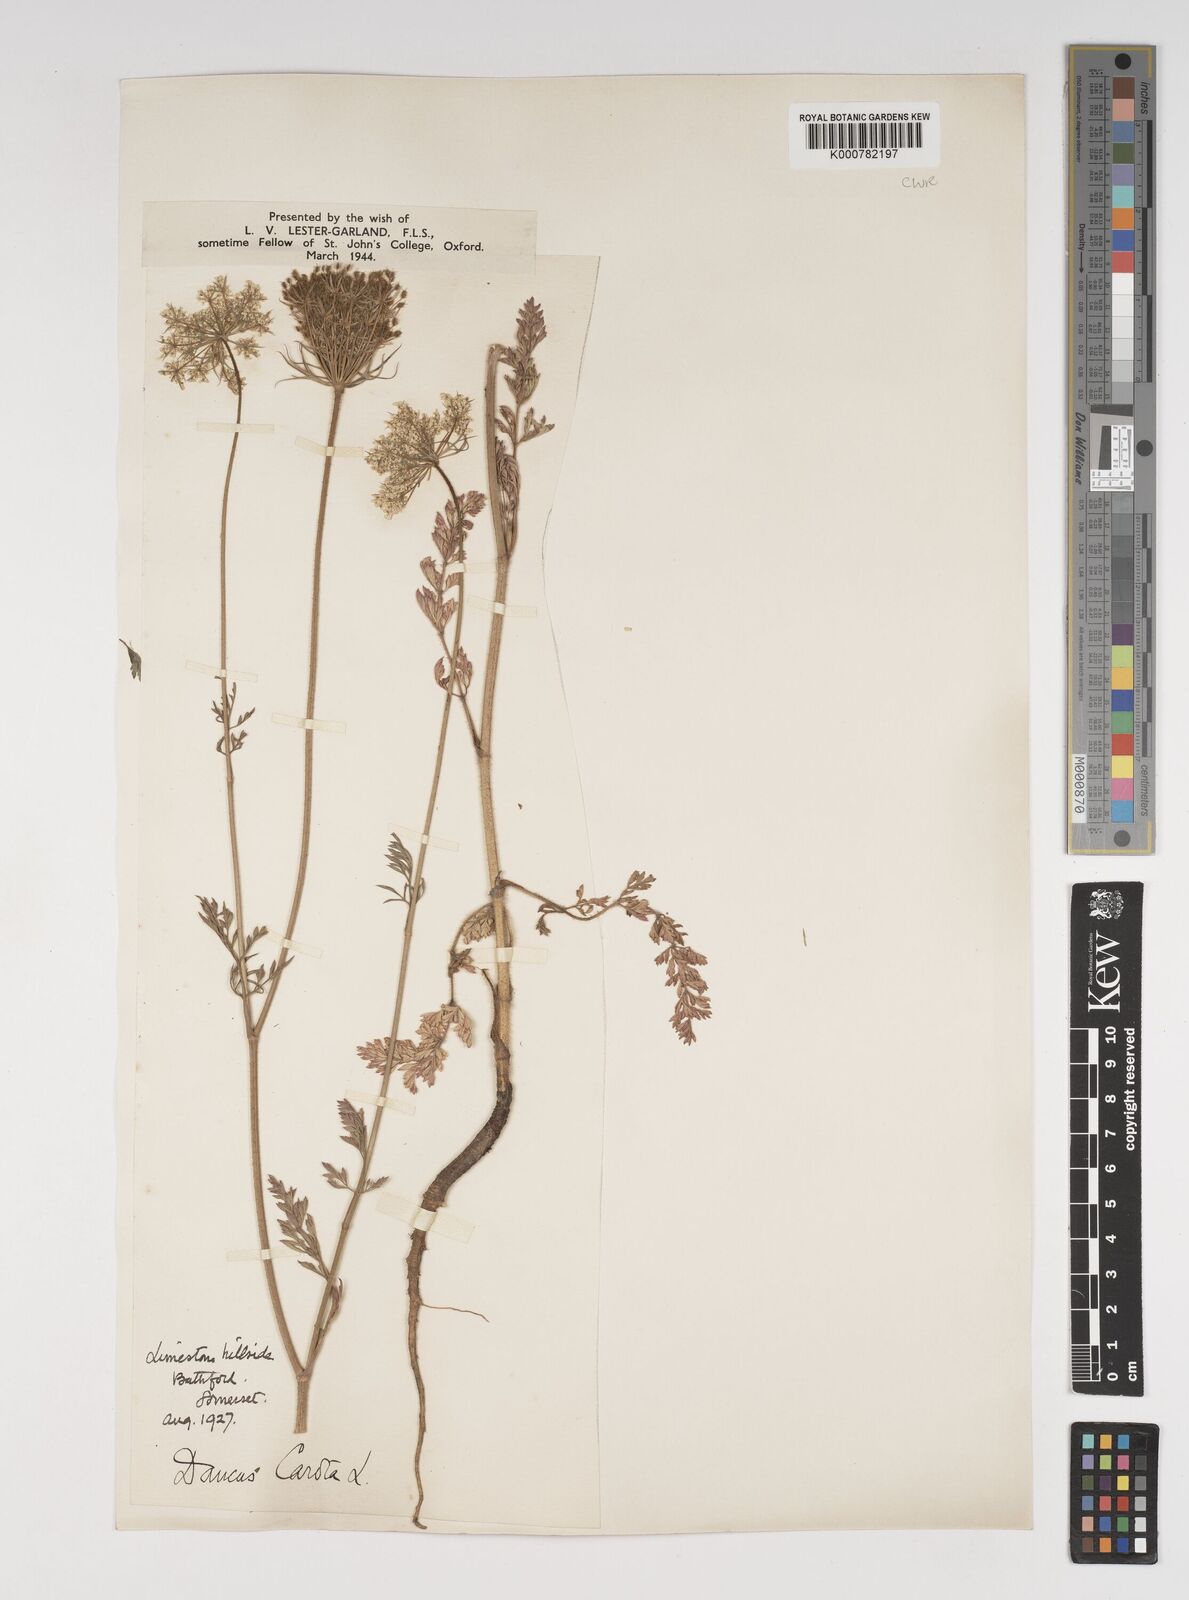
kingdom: Plantae
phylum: Tracheophyta
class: Magnoliopsida
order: Apiales
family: Apiaceae
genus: Daucus
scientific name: Daucus carota
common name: Wild carrot
